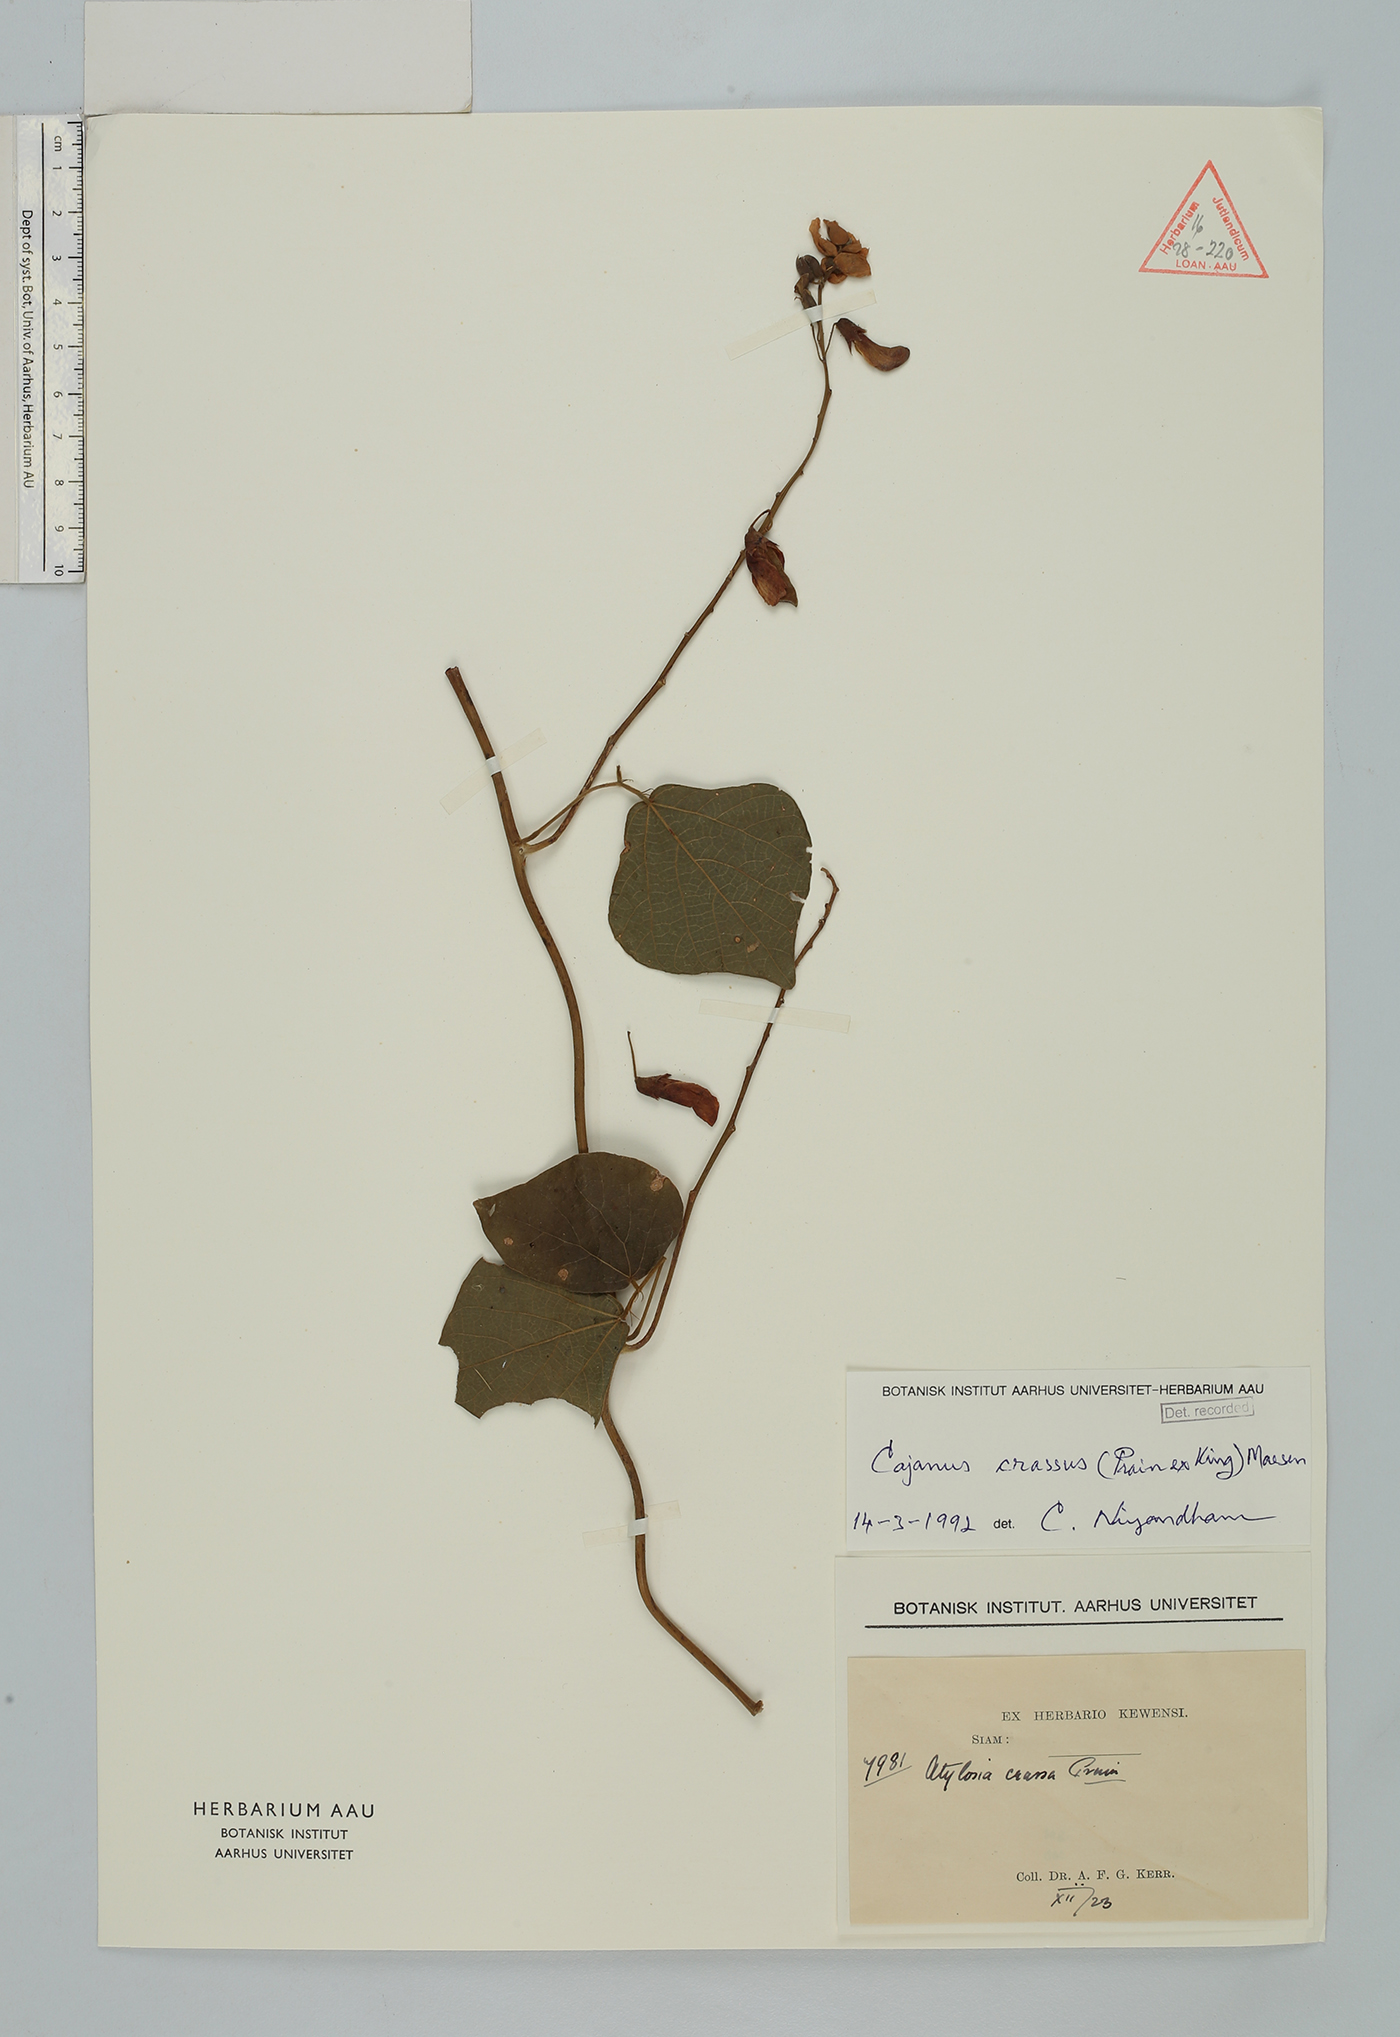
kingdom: Plantae
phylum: Tracheophyta
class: Magnoliopsida
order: Fabales
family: Fabaceae
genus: Cajanus
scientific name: Cajanus crassus
